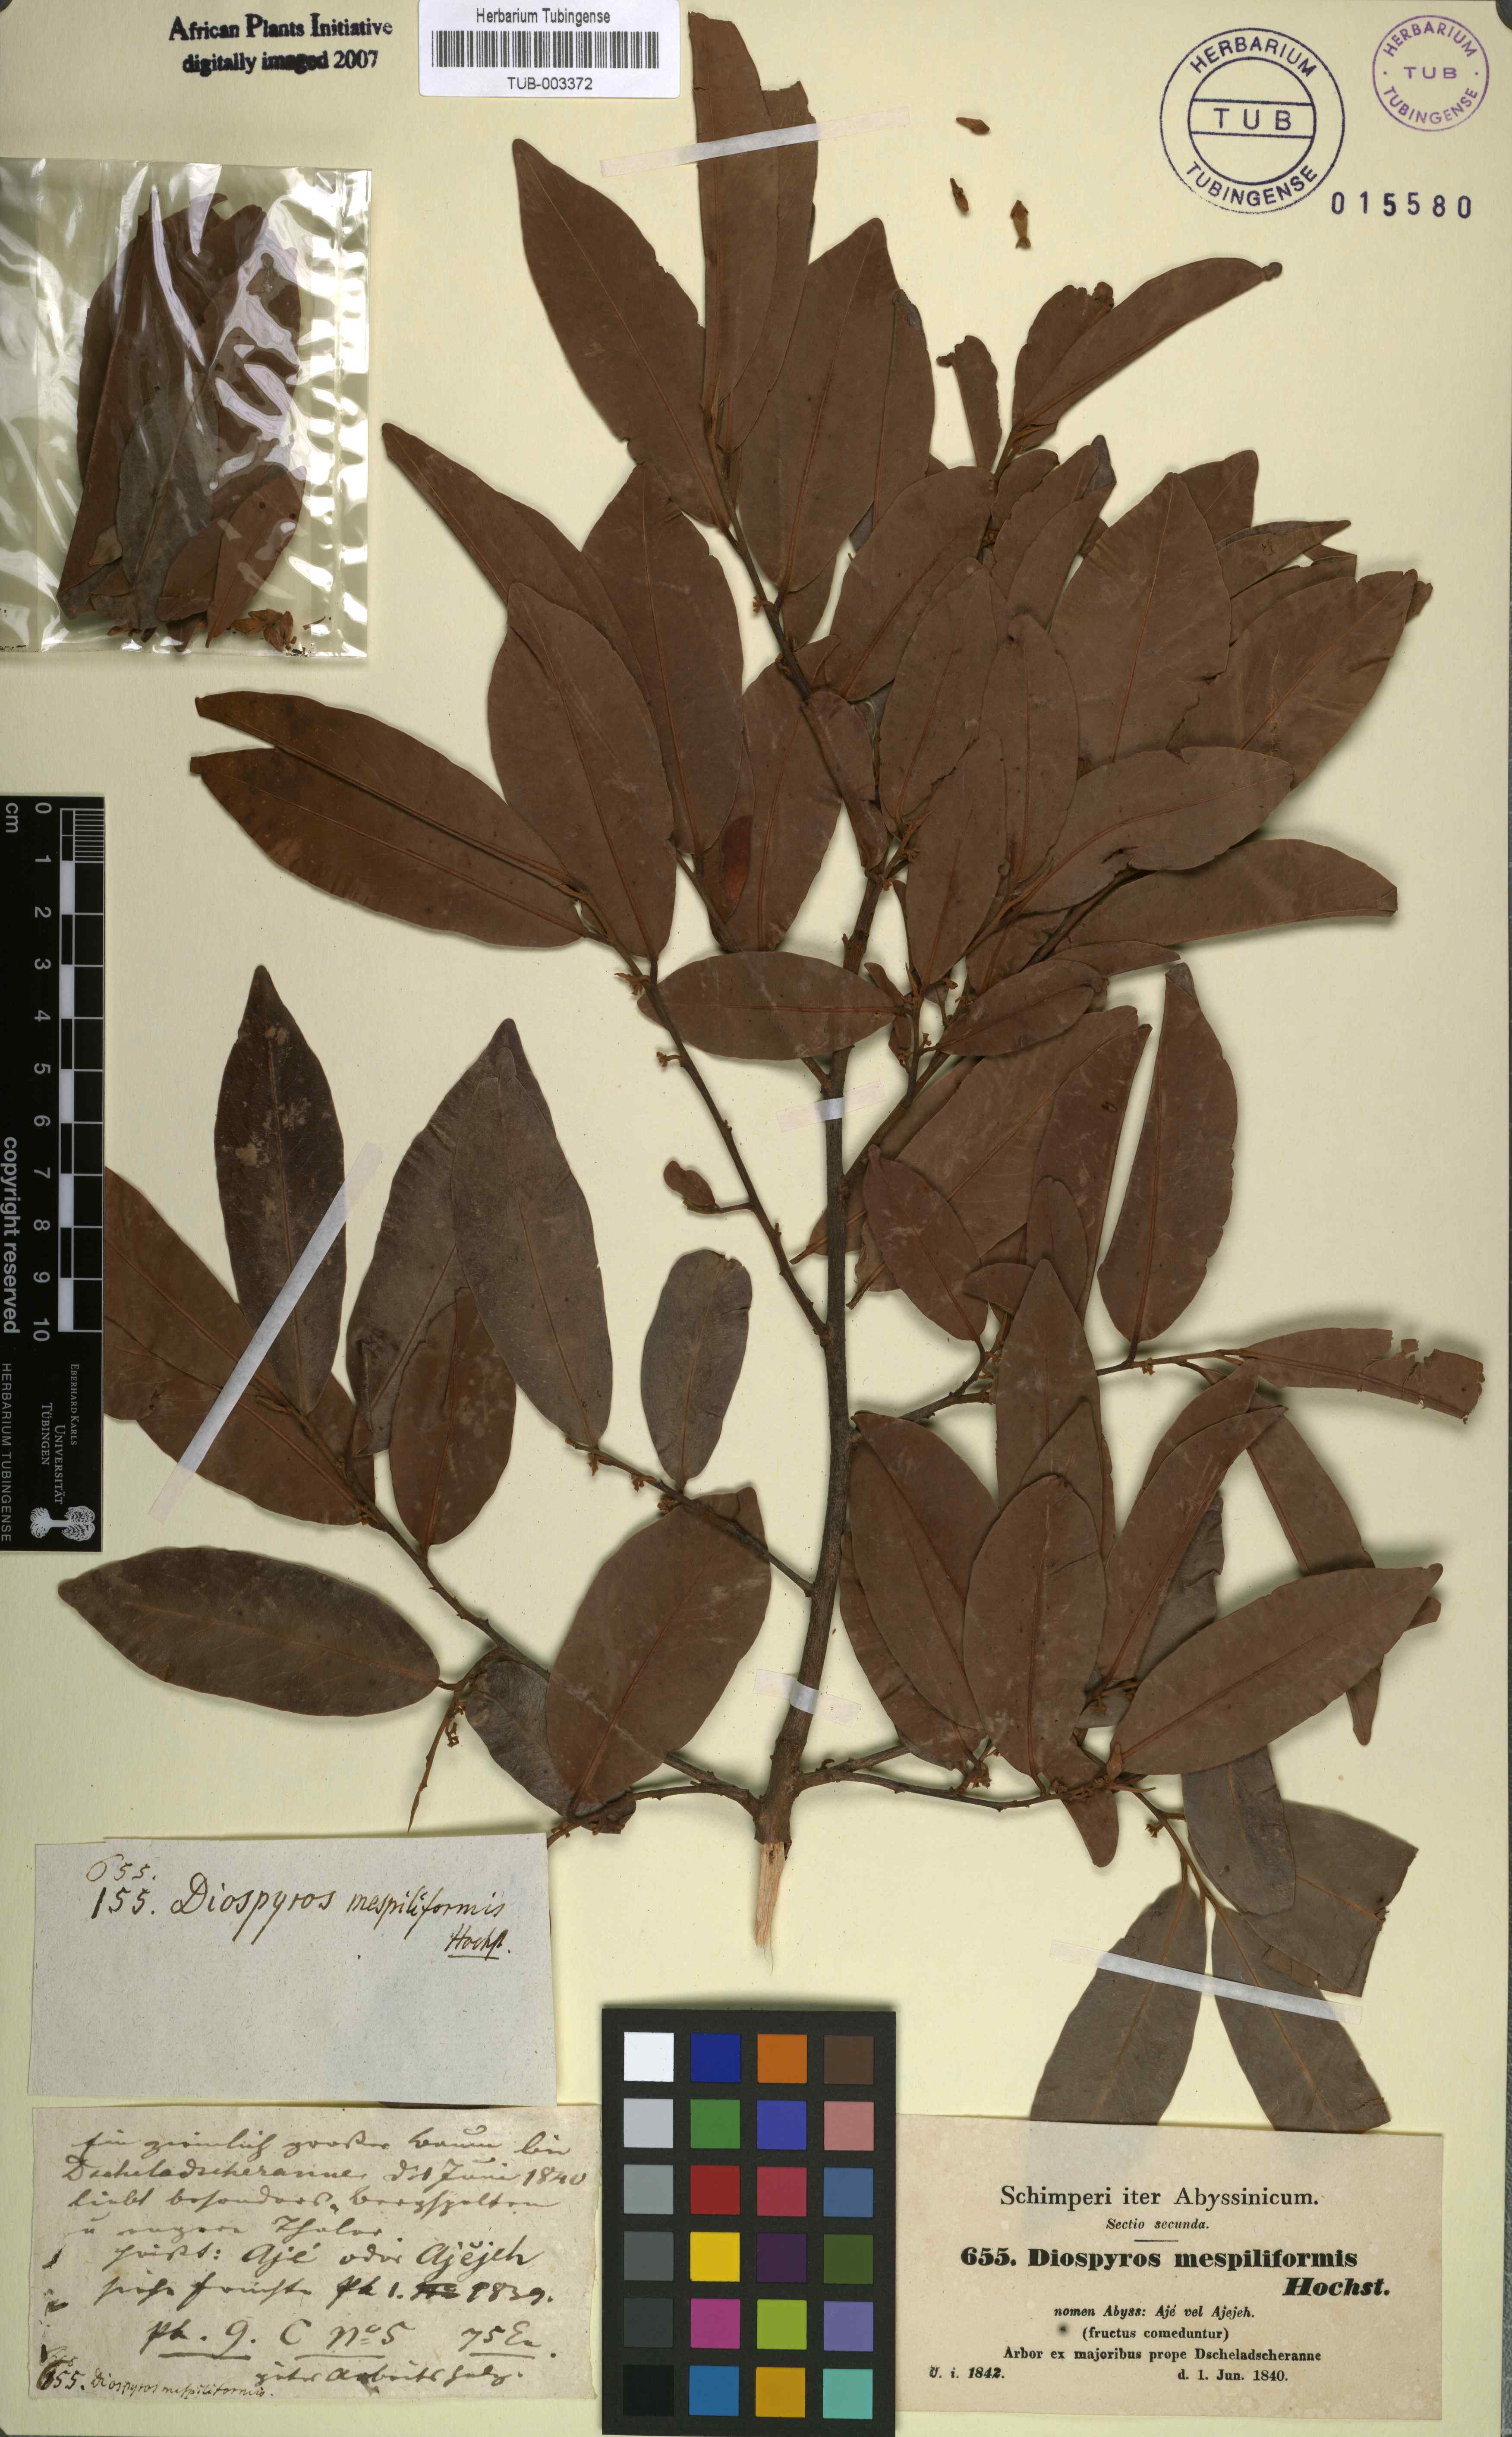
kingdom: Plantae
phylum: Tracheophyta
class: Magnoliopsida
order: Ericales
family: Ebenaceae
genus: Diospyros
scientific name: Diospyros mespiliformis
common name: Ebony diospyros
